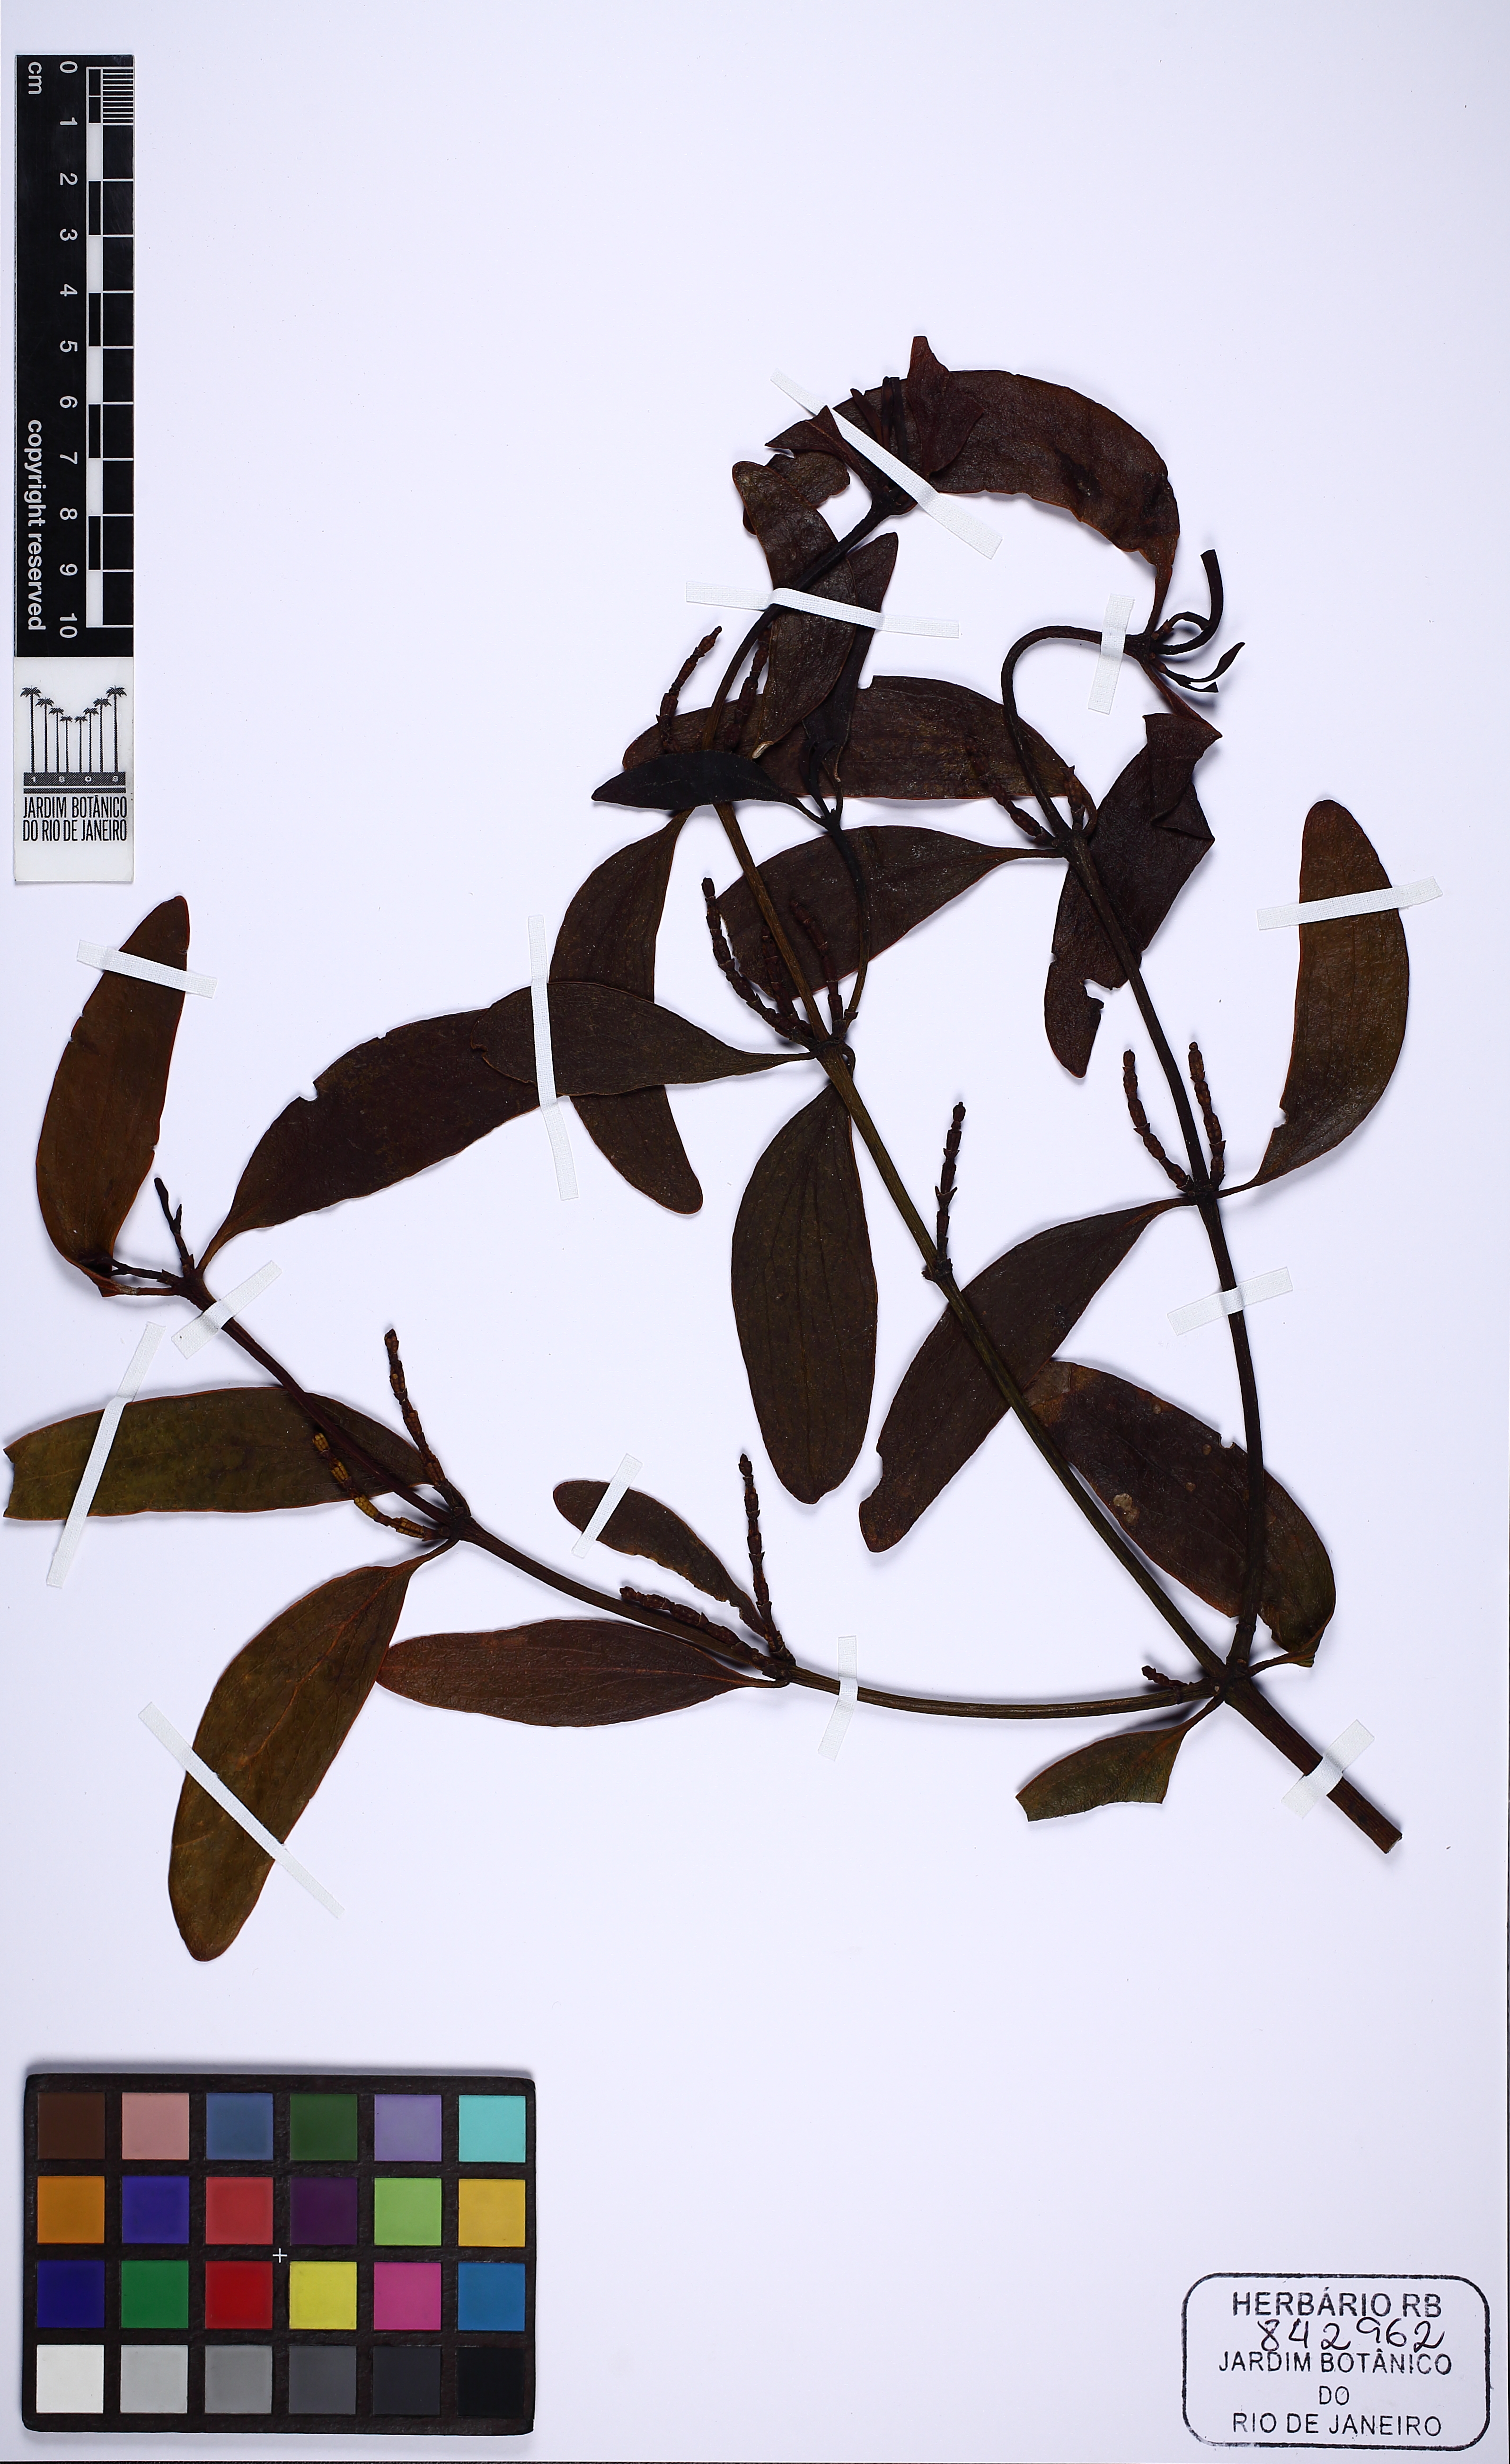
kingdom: Plantae
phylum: Tracheophyta
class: Magnoliopsida
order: Santalales
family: Viscaceae
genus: Phoradendron
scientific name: Phoradendron perrottetii
